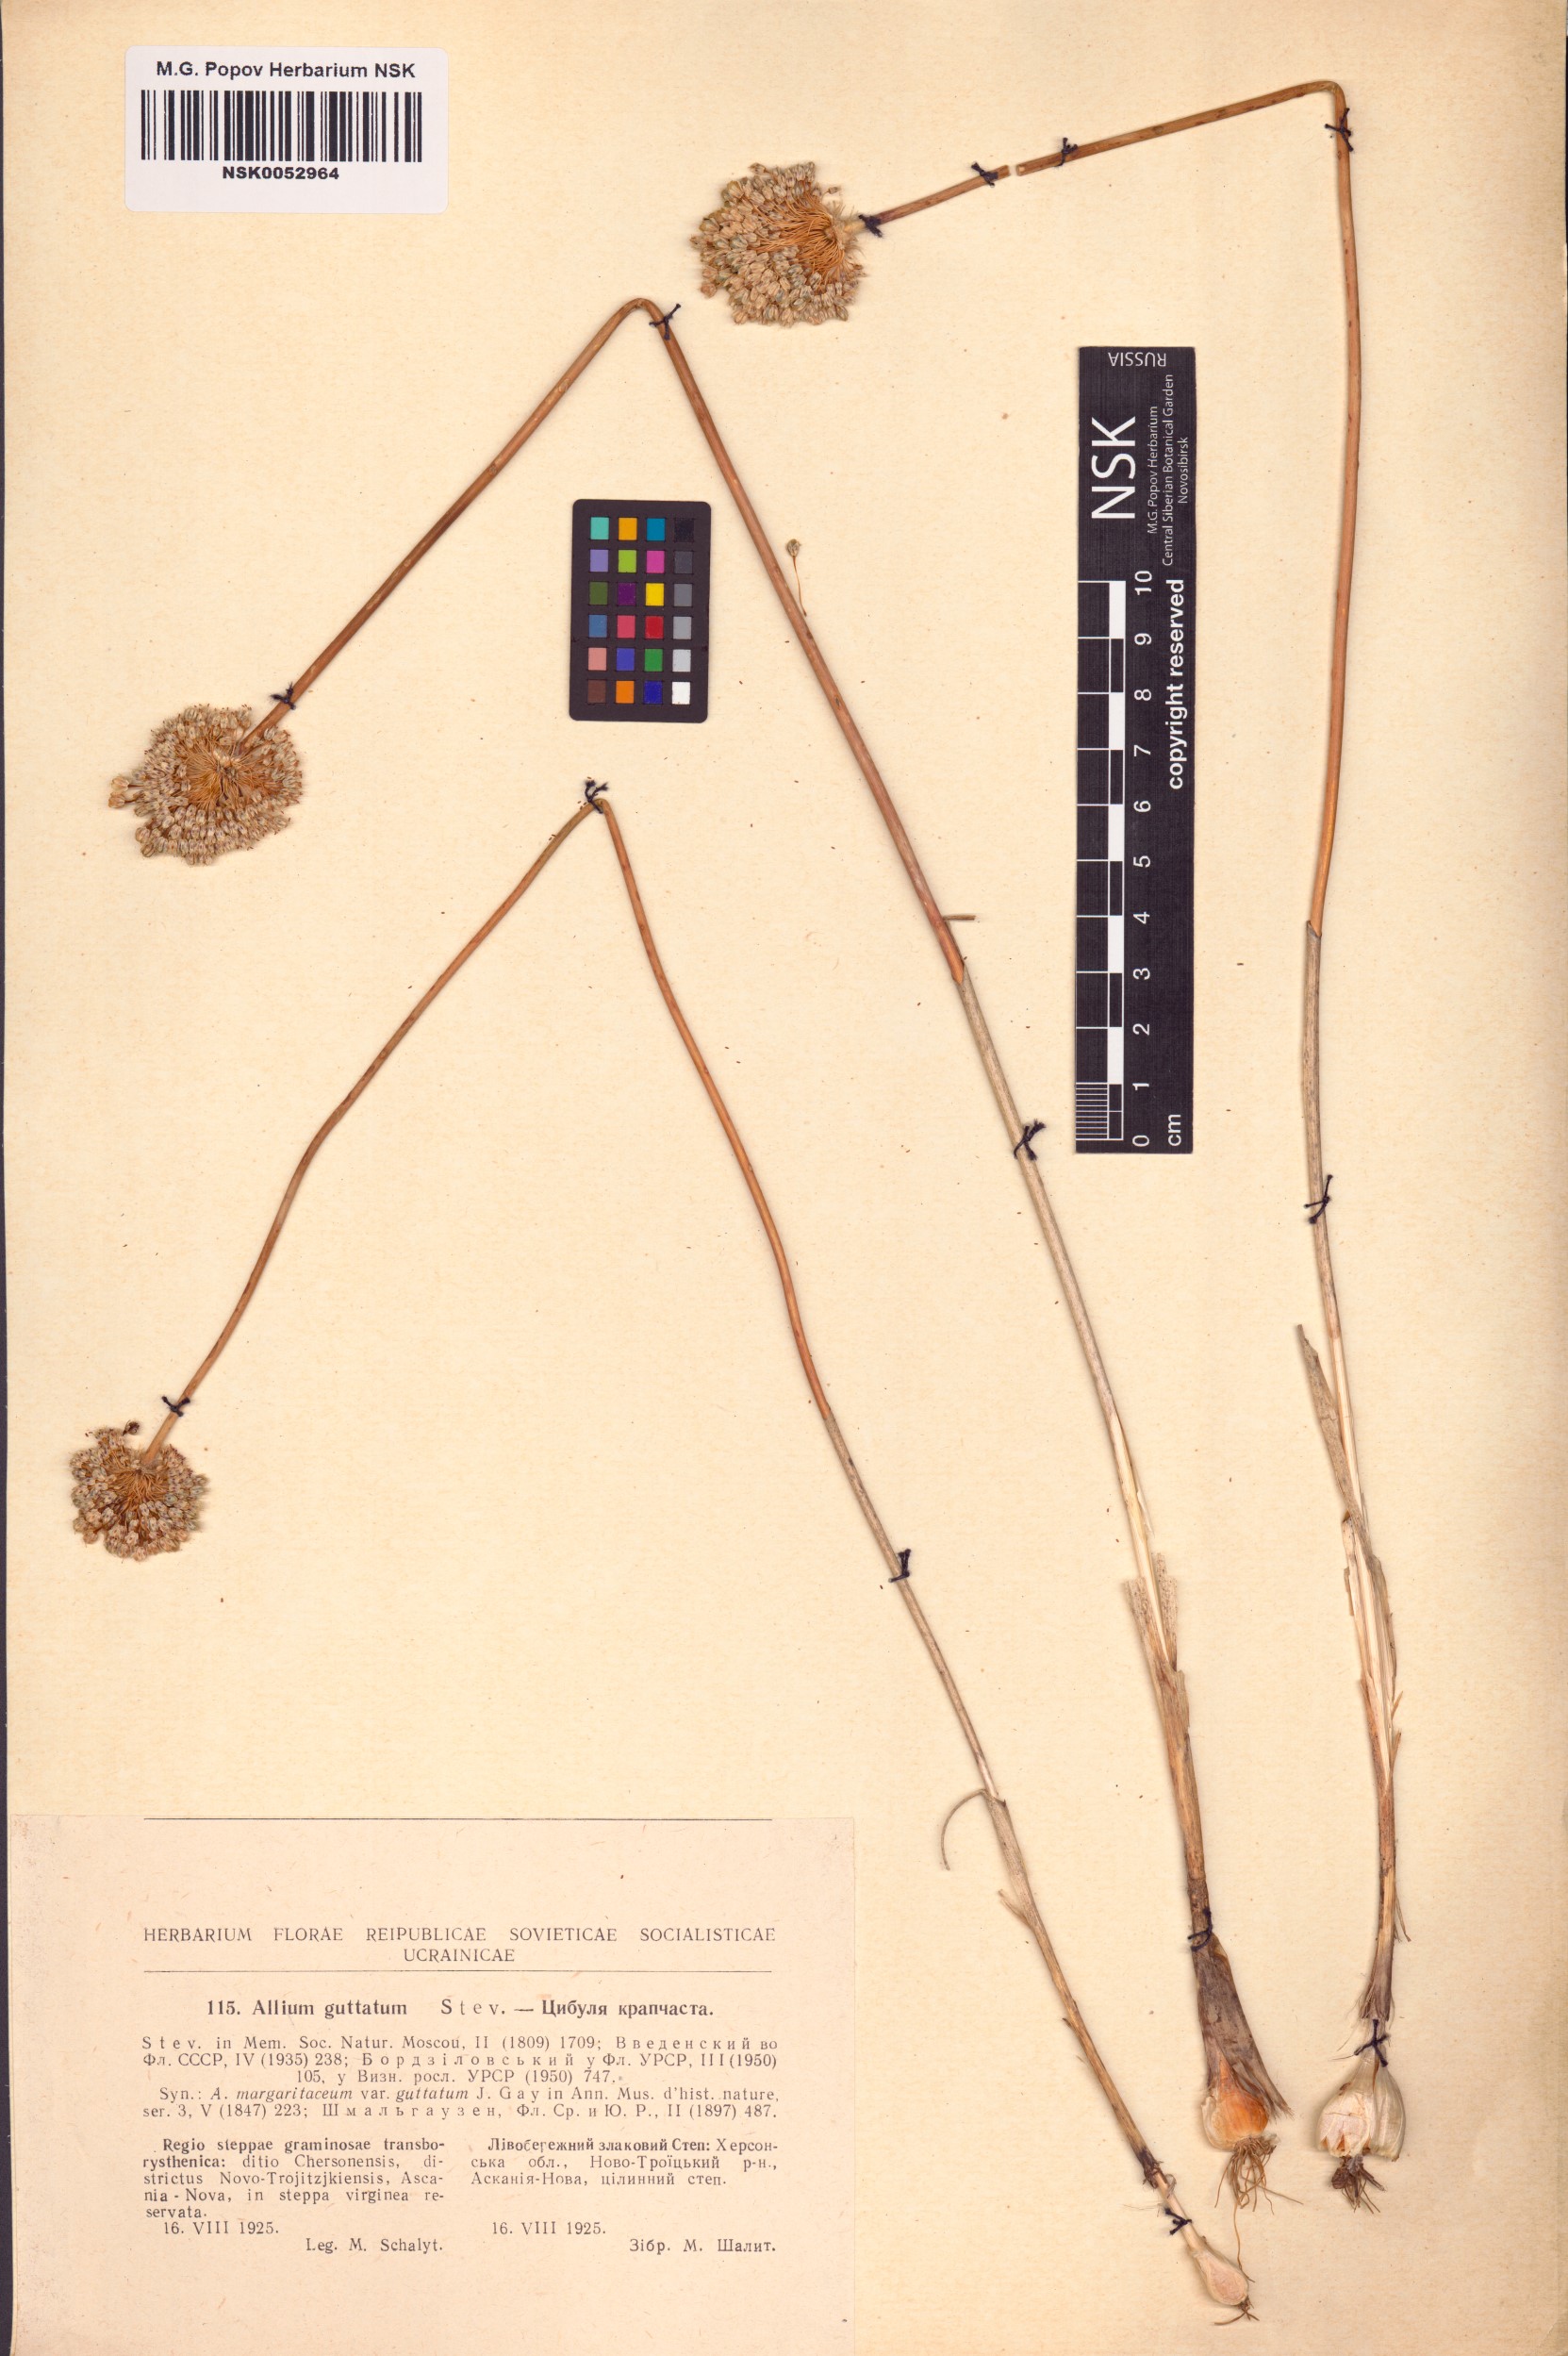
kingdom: Plantae
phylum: Tracheophyta
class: Liliopsida
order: Asparagales
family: Amaryllidaceae
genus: Allium
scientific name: Allium guttatum
